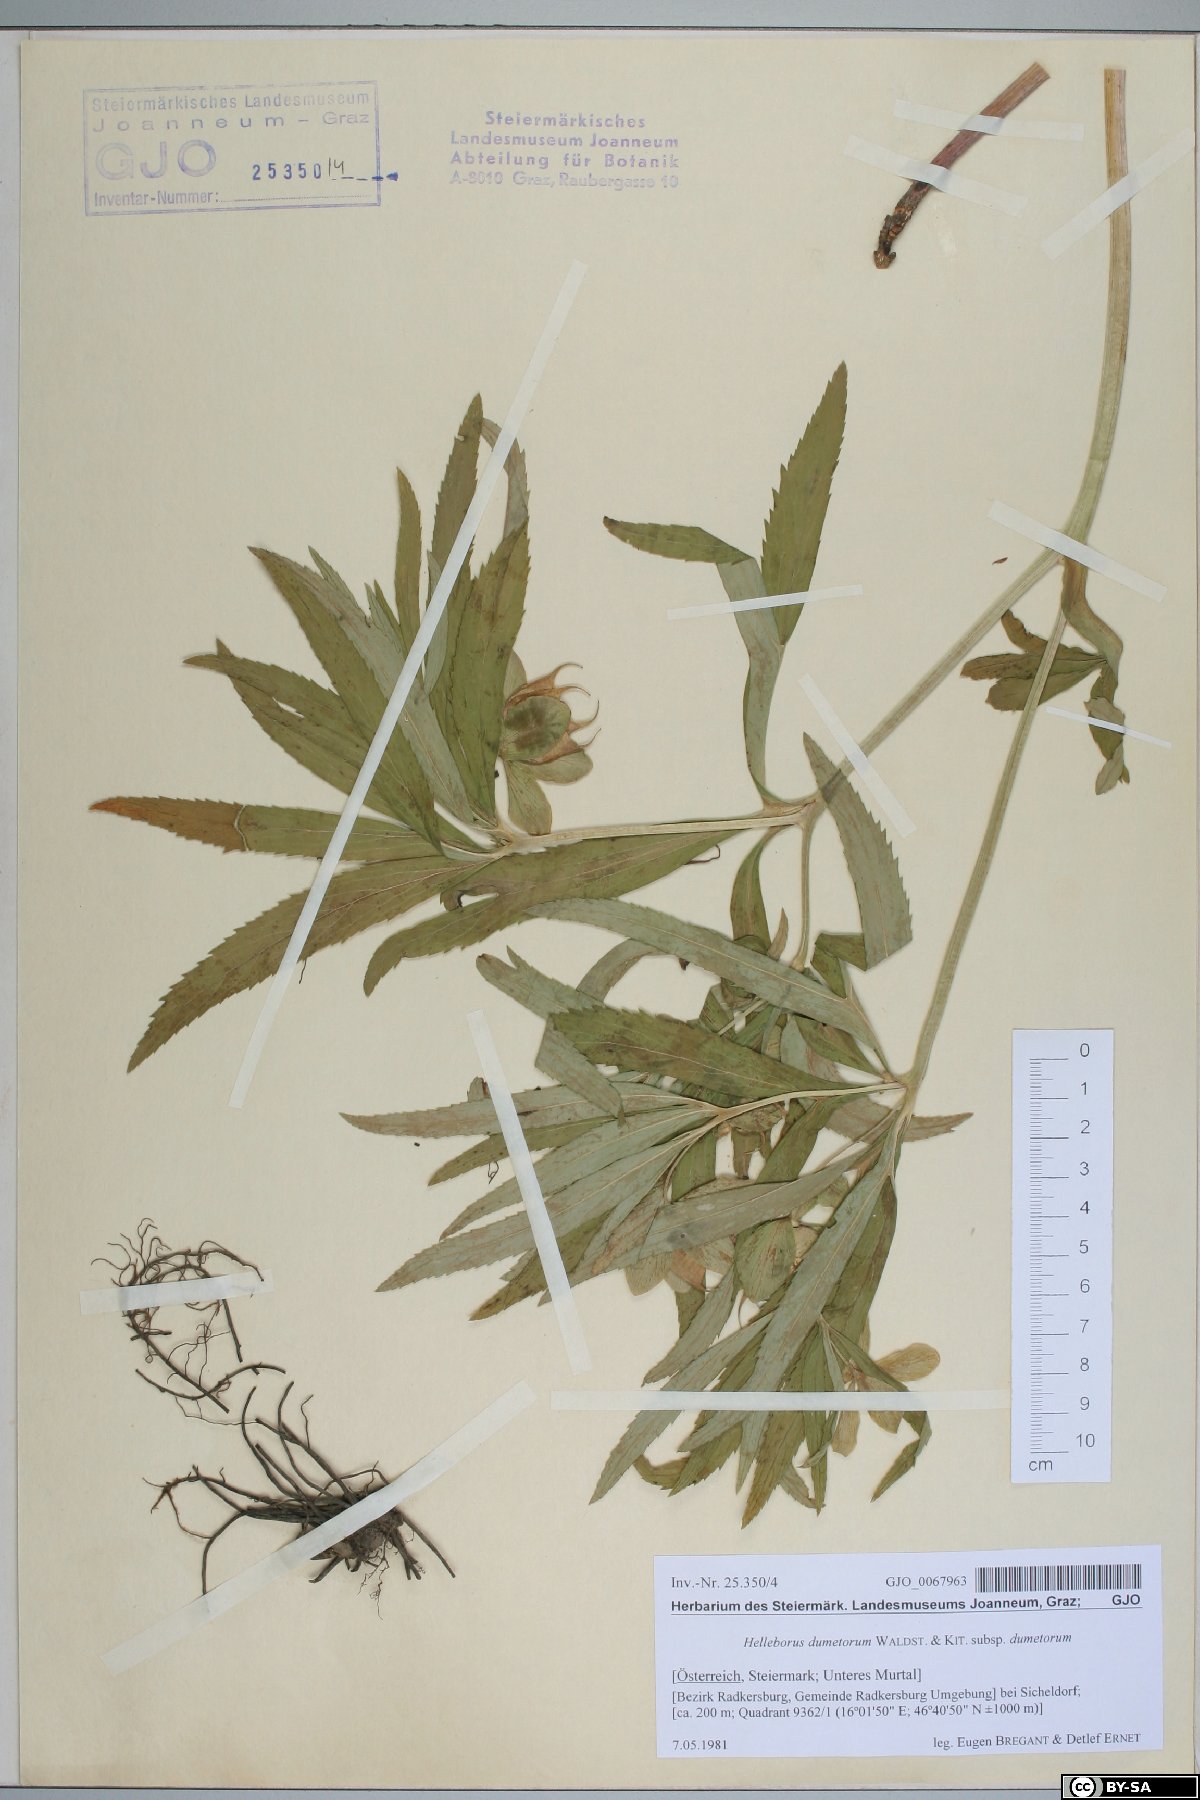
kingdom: Plantae
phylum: Tracheophyta
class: Magnoliopsida
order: Ranunculales
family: Ranunculaceae
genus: Helleborus
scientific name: Helleborus dumetorum
